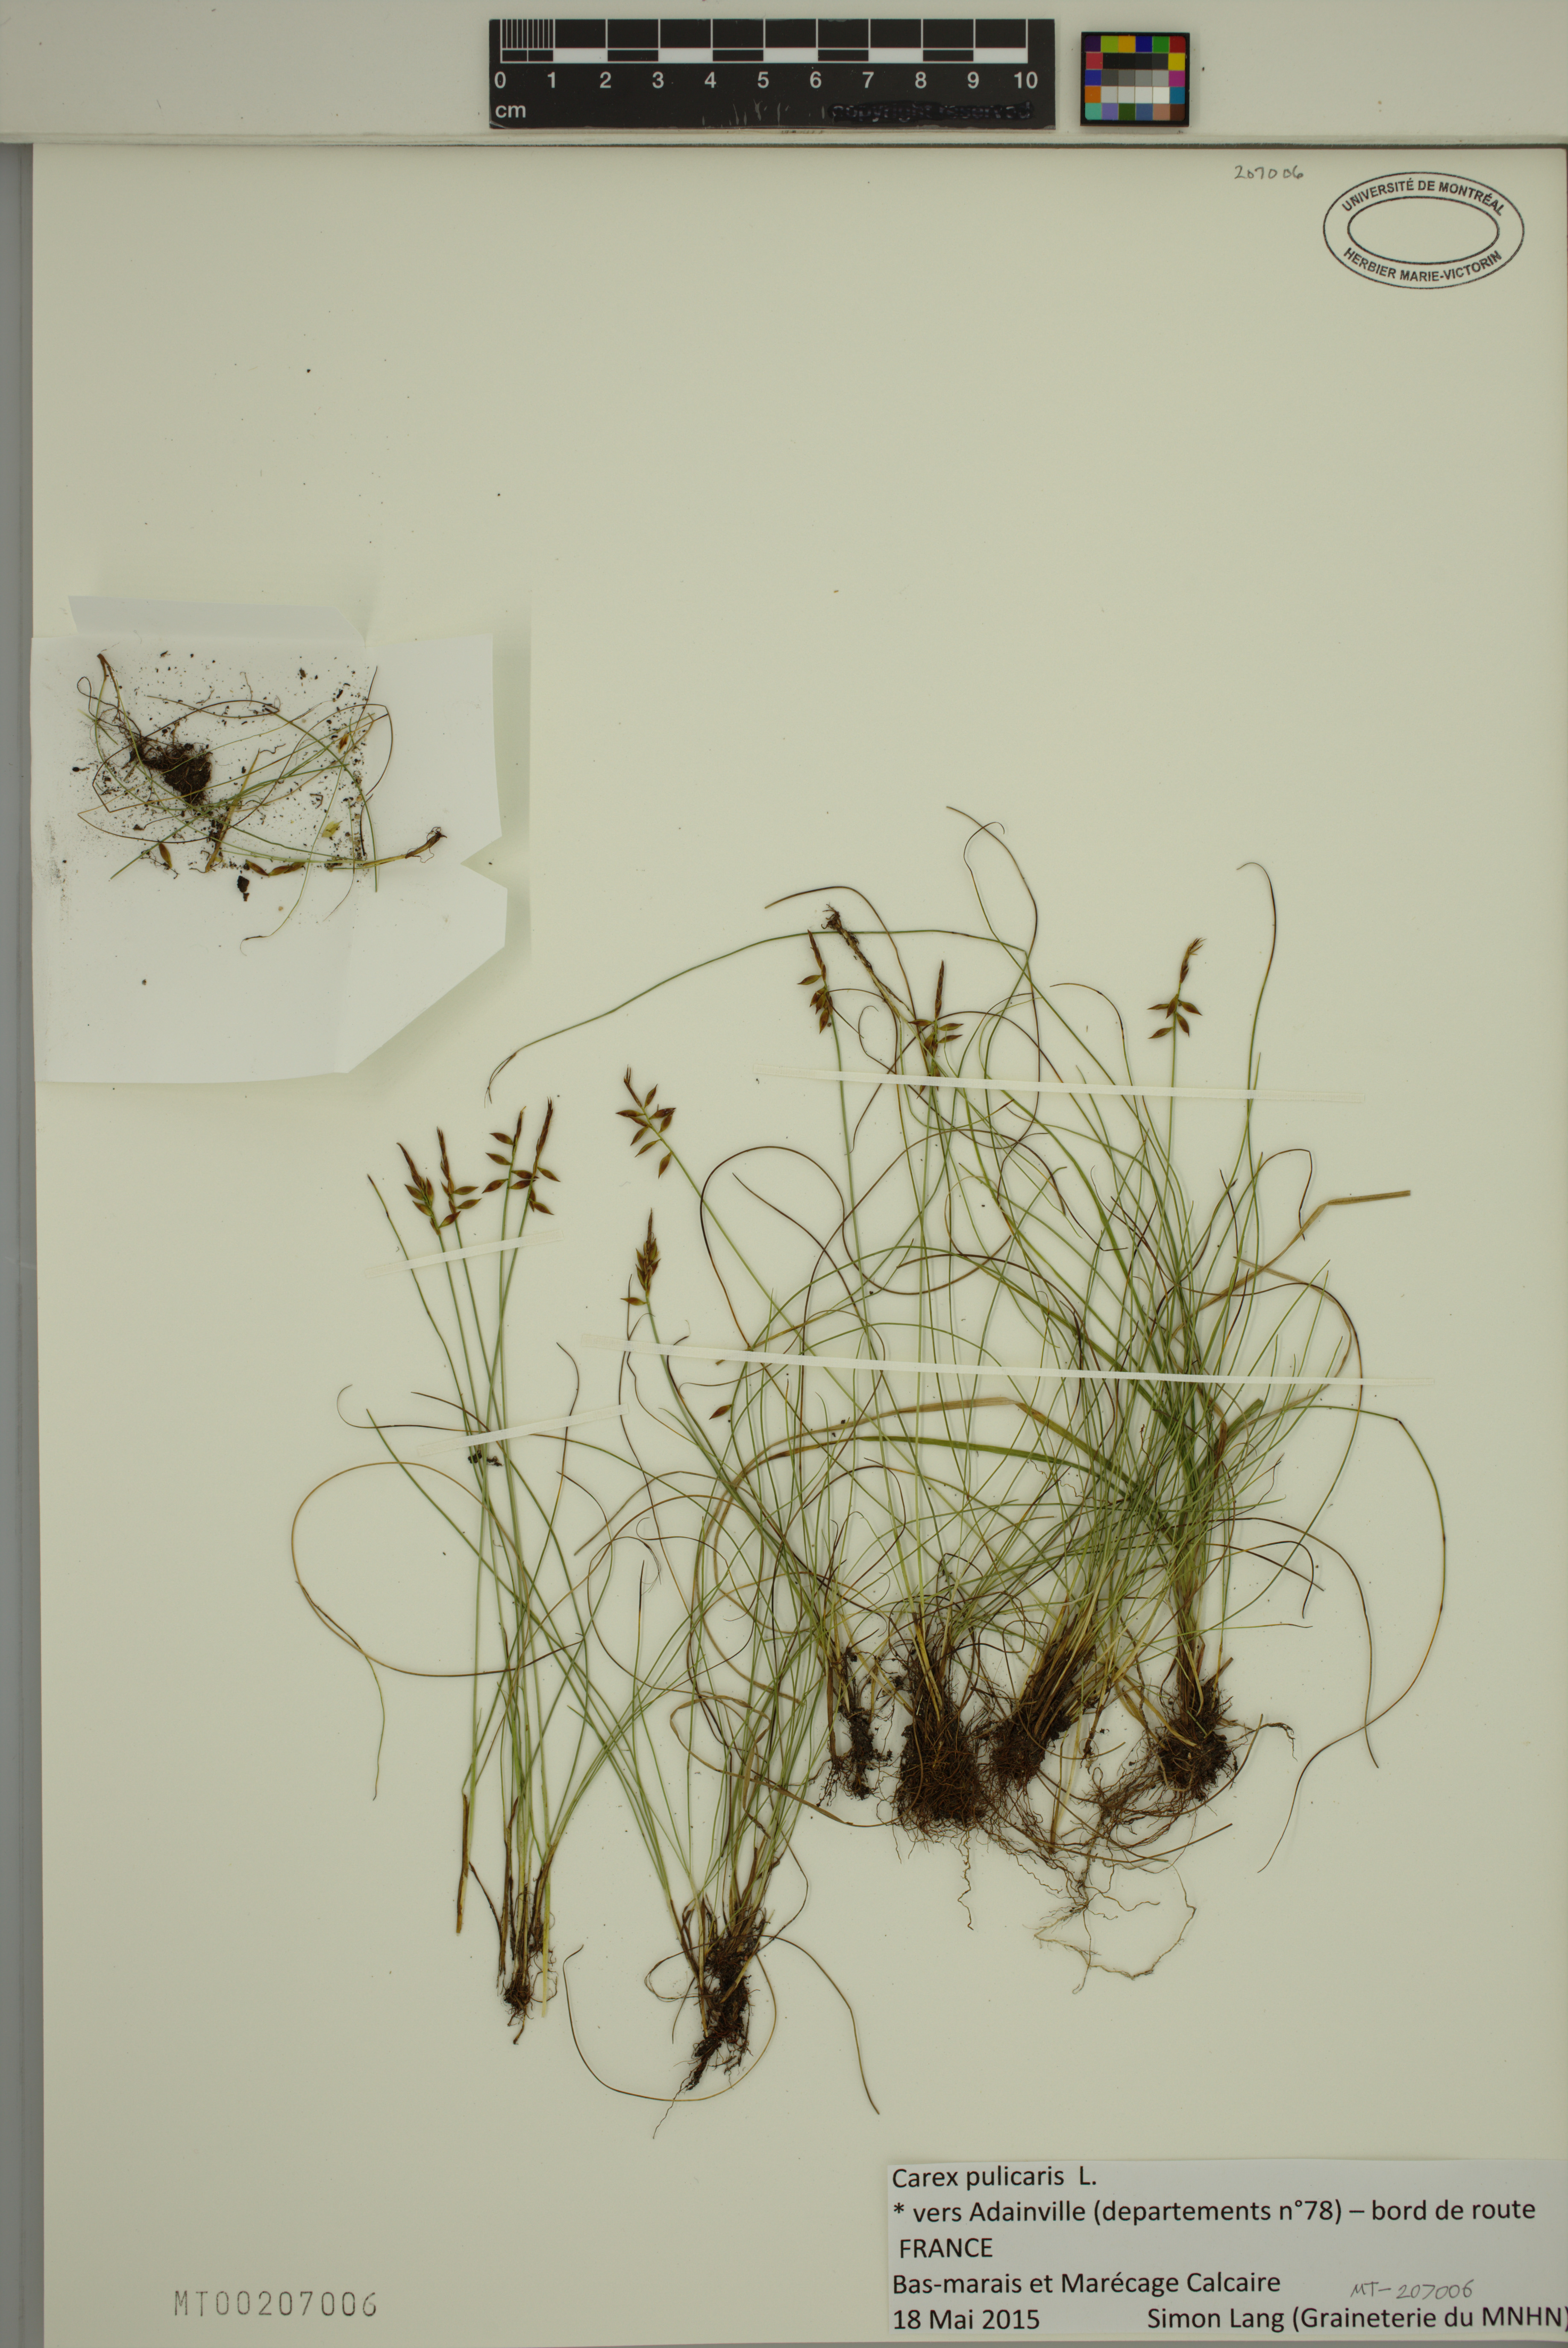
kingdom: Plantae
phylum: Tracheophyta
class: Liliopsida
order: Poales
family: Cyperaceae
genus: Carex
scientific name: Carex pulicaris
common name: Flea sedge
